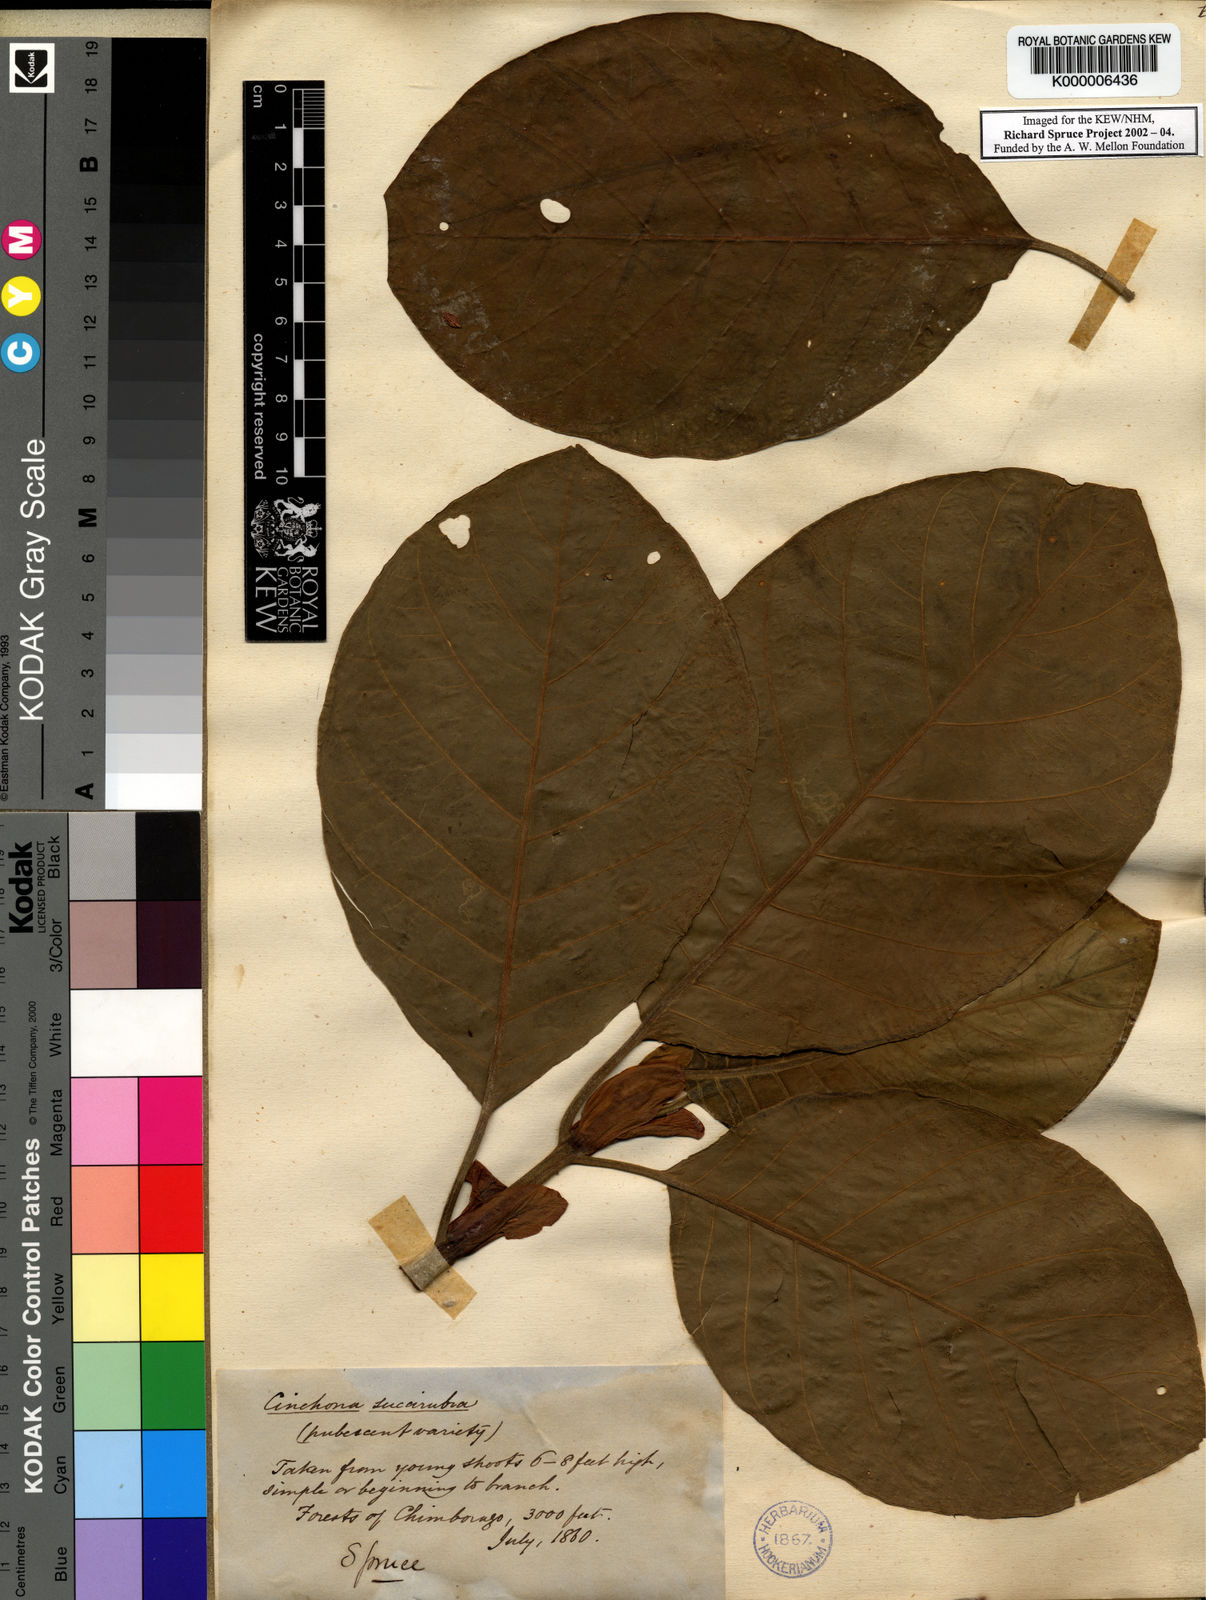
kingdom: Plantae
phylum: Tracheophyta
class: Magnoliopsida
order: Gentianales
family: Rubiaceae
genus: Cinchona
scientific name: Cinchona pubescens
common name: Quinine
